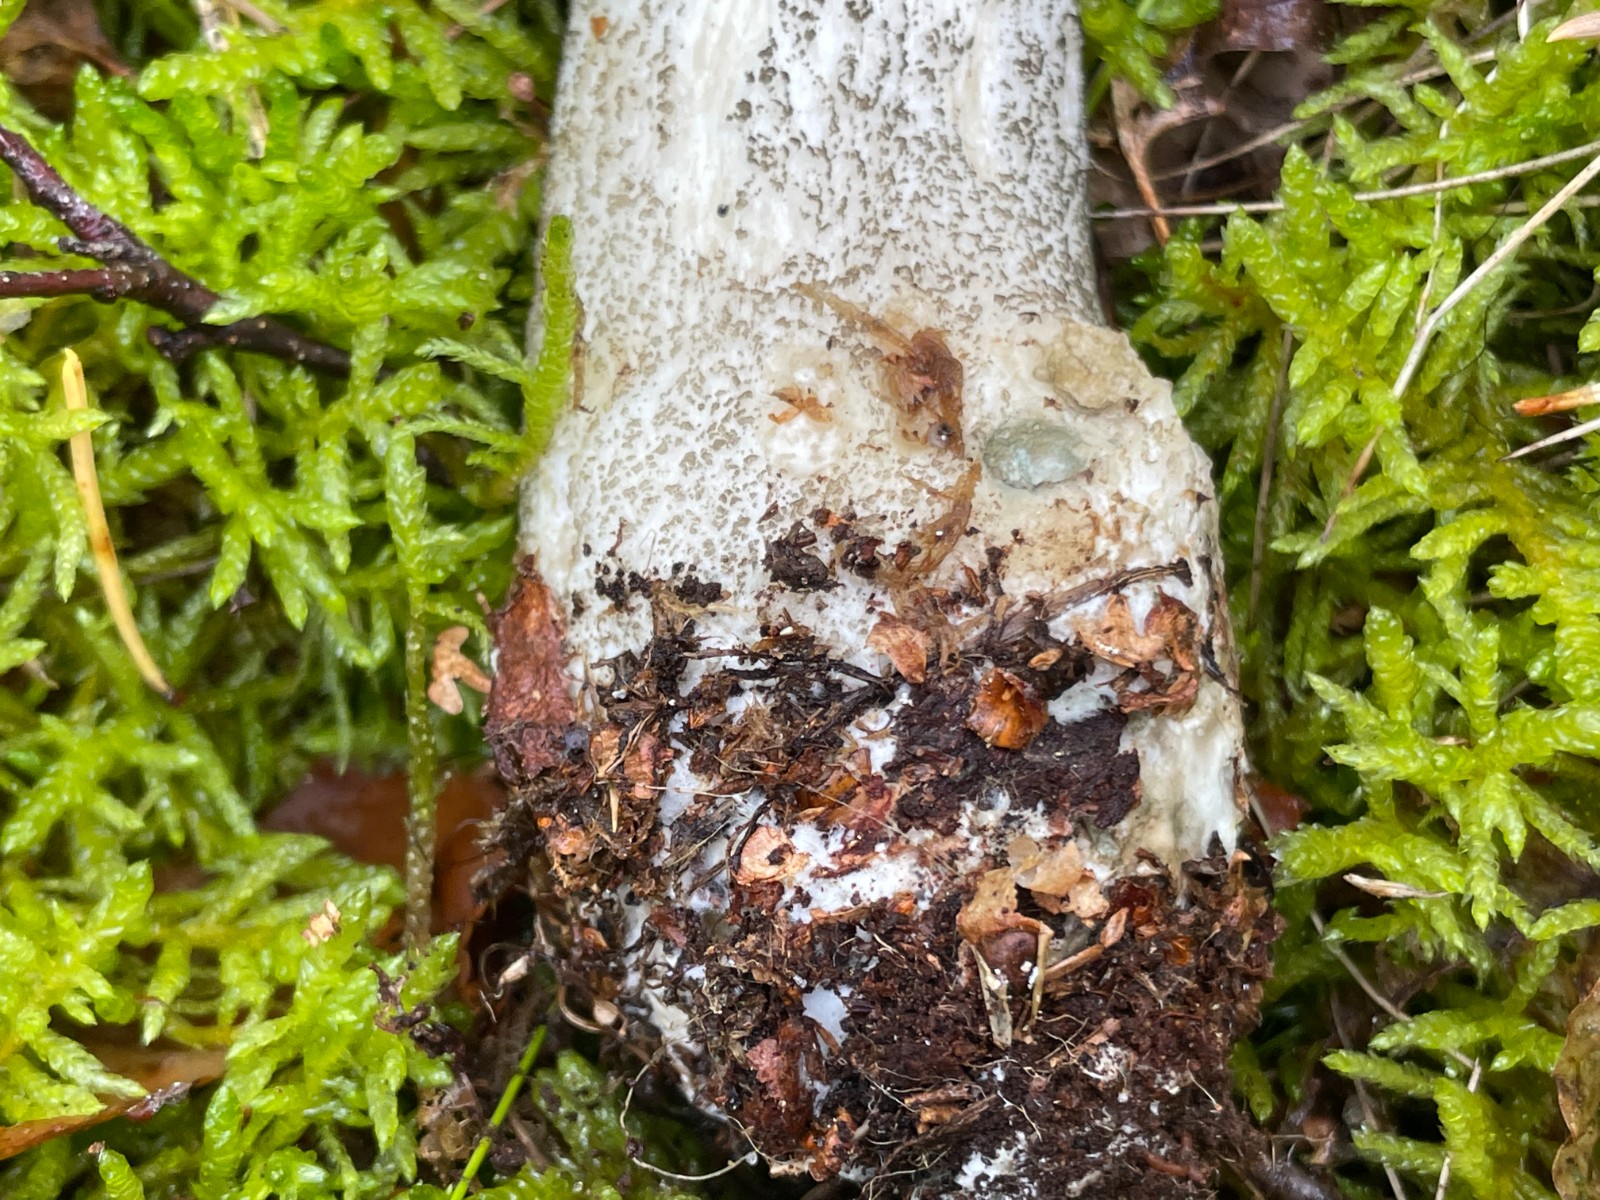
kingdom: Fungi
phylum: Basidiomycota
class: Agaricomycetes
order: Boletales
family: Boletaceae
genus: Leccinum
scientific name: Leccinum scabrum
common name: brun skælrørhat
